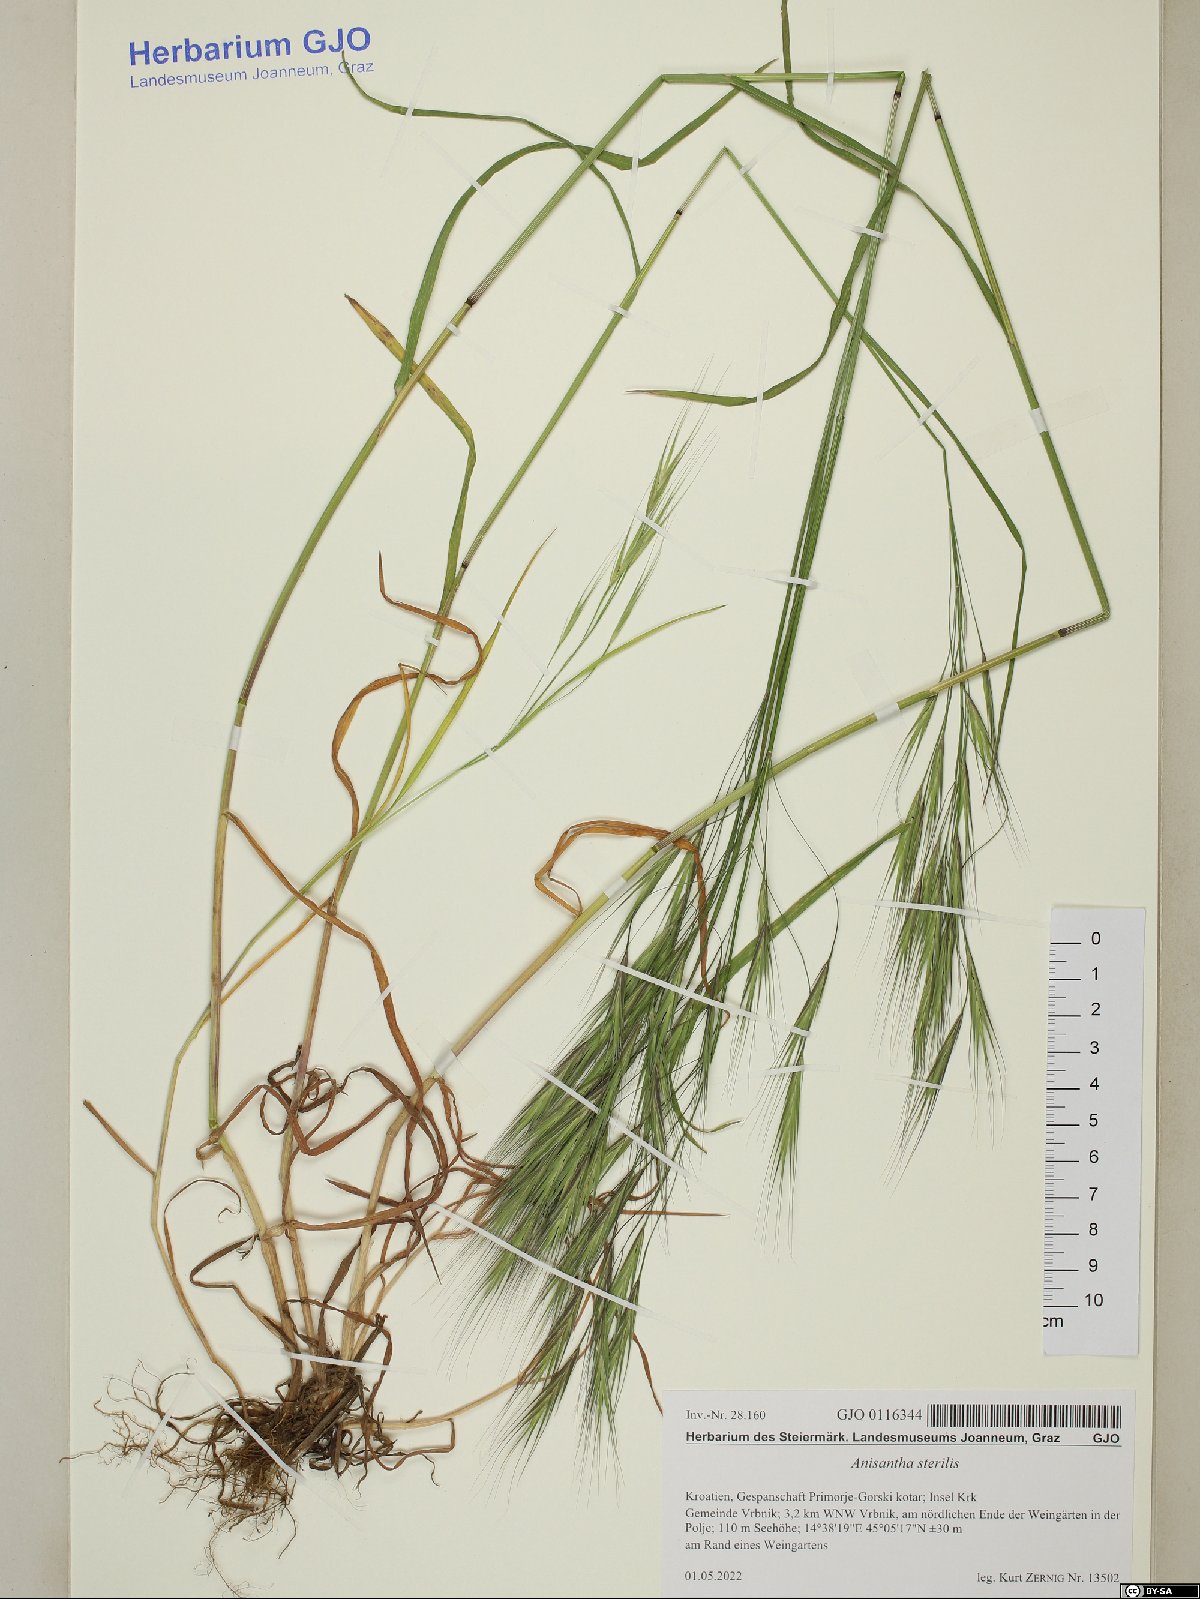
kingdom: Plantae
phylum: Tracheophyta
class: Liliopsida
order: Poales
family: Poaceae
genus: Bromus
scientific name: Bromus sterilis
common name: Poverty brome
